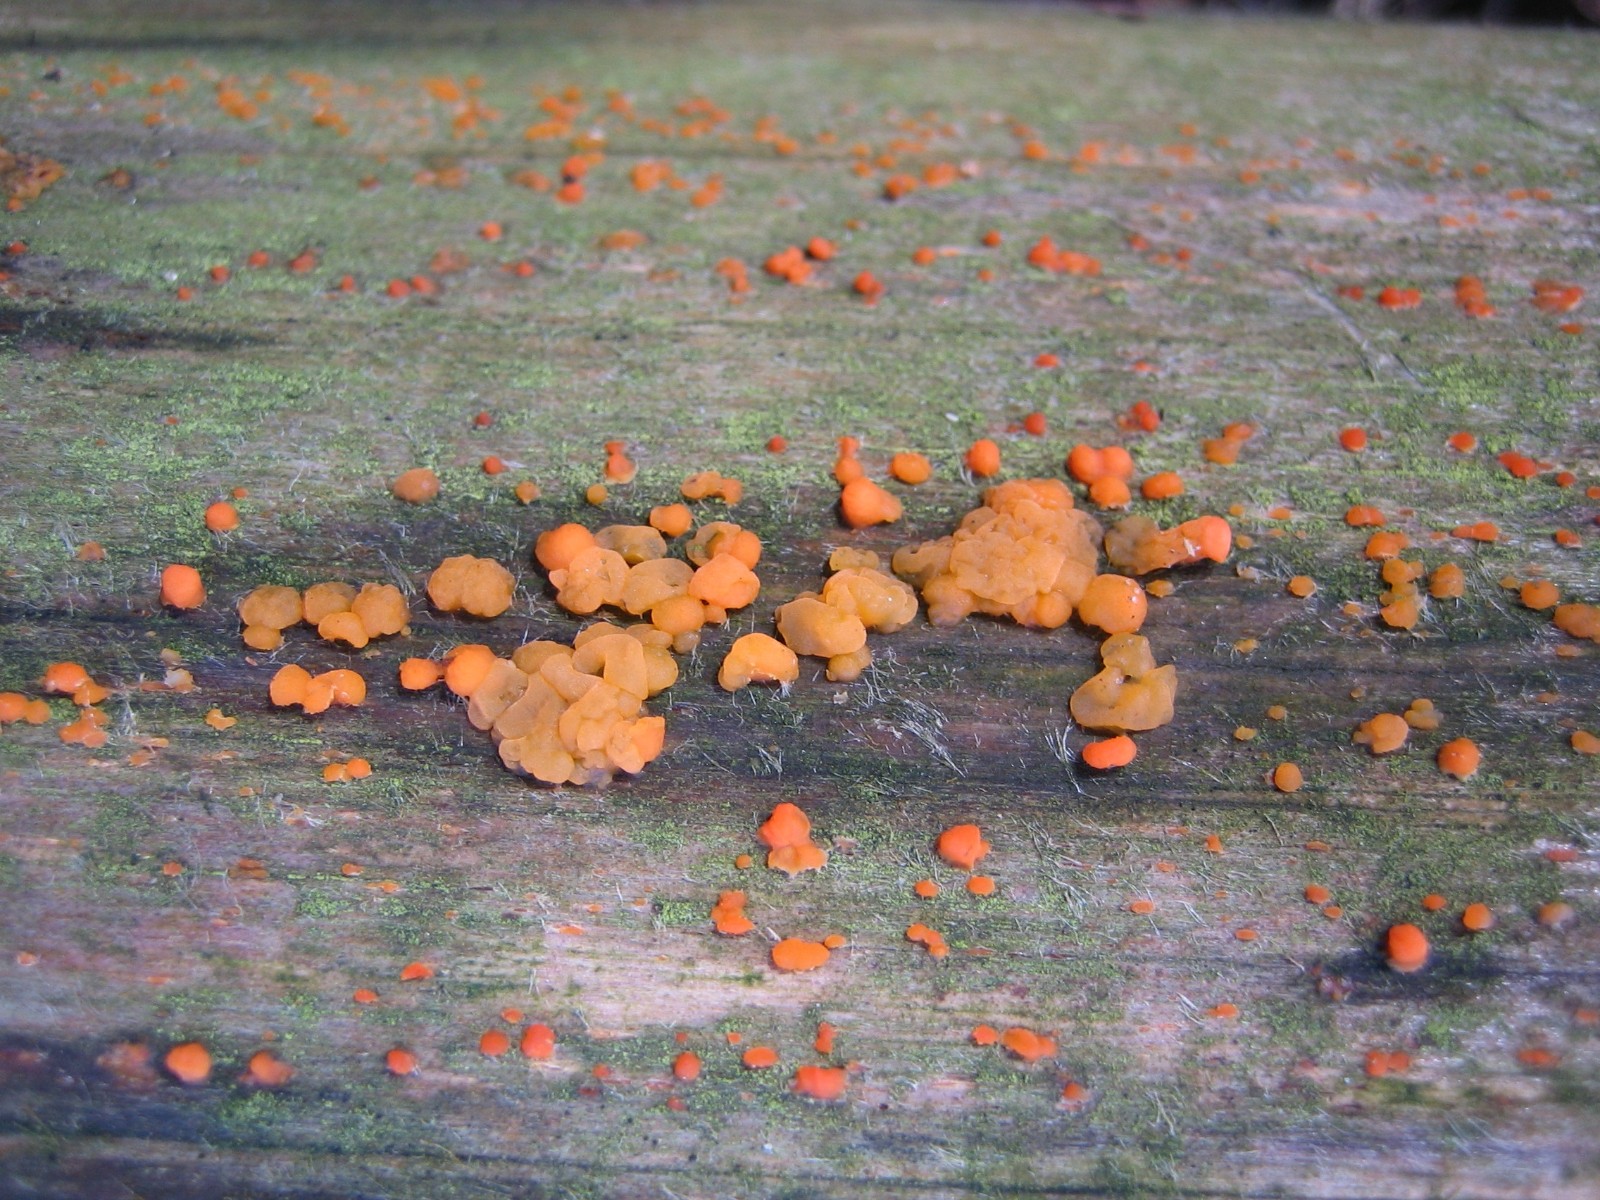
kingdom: Fungi
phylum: Basidiomycota
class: Dacrymycetes
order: Dacrymycetales
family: Dacrymycetaceae
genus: Dacrymyces
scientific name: Dacrymyces stillatus
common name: almindelig tåresvamp
